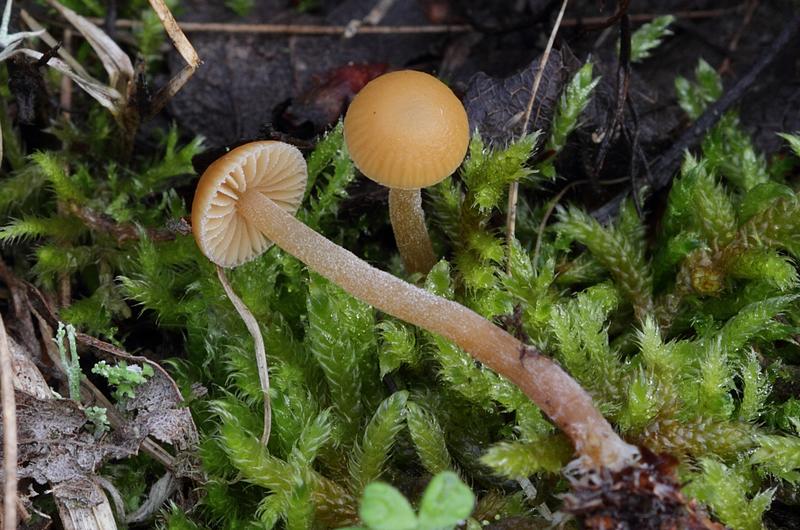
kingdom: Fungi
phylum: Basidiomycota
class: Agaricomycetes
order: Agaricales
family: Hymenogastraceae
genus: Galerina
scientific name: Galerina vittiformis
